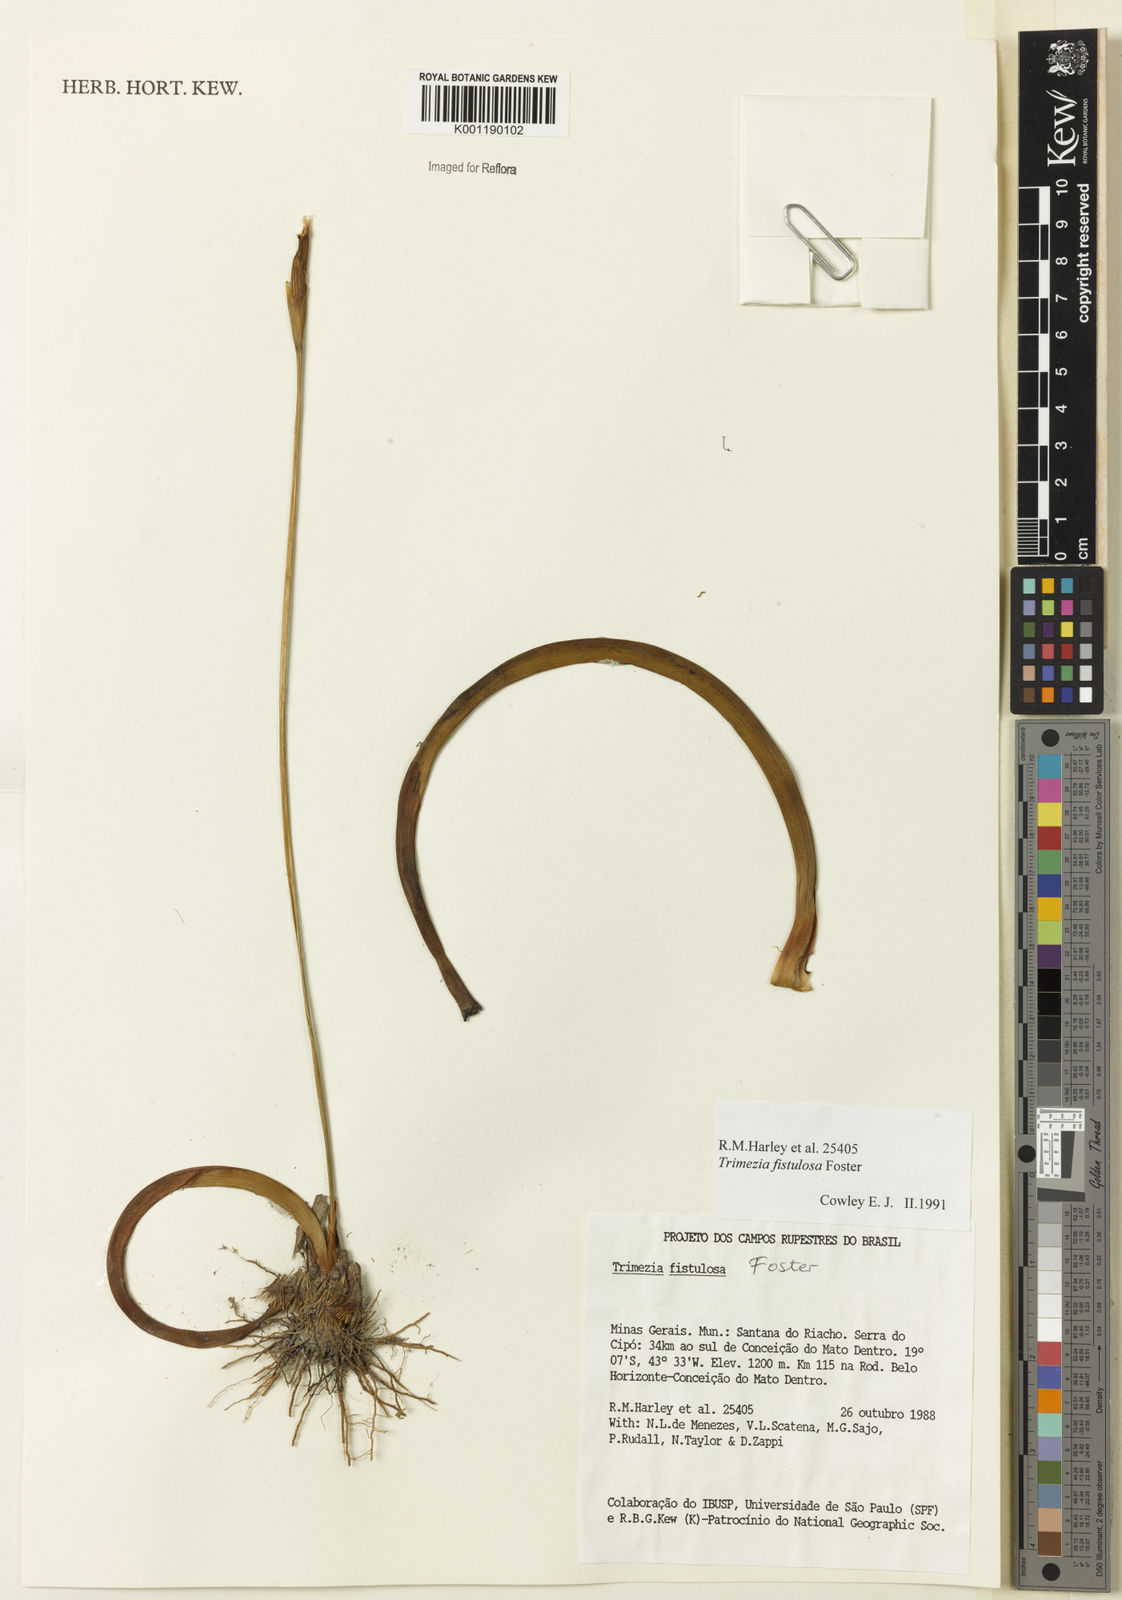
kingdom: Plantae
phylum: Tracheophyta
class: Liliopsida
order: Asparagales
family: Iridaceae
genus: Trimezia
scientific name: Trimezia fistulosa
